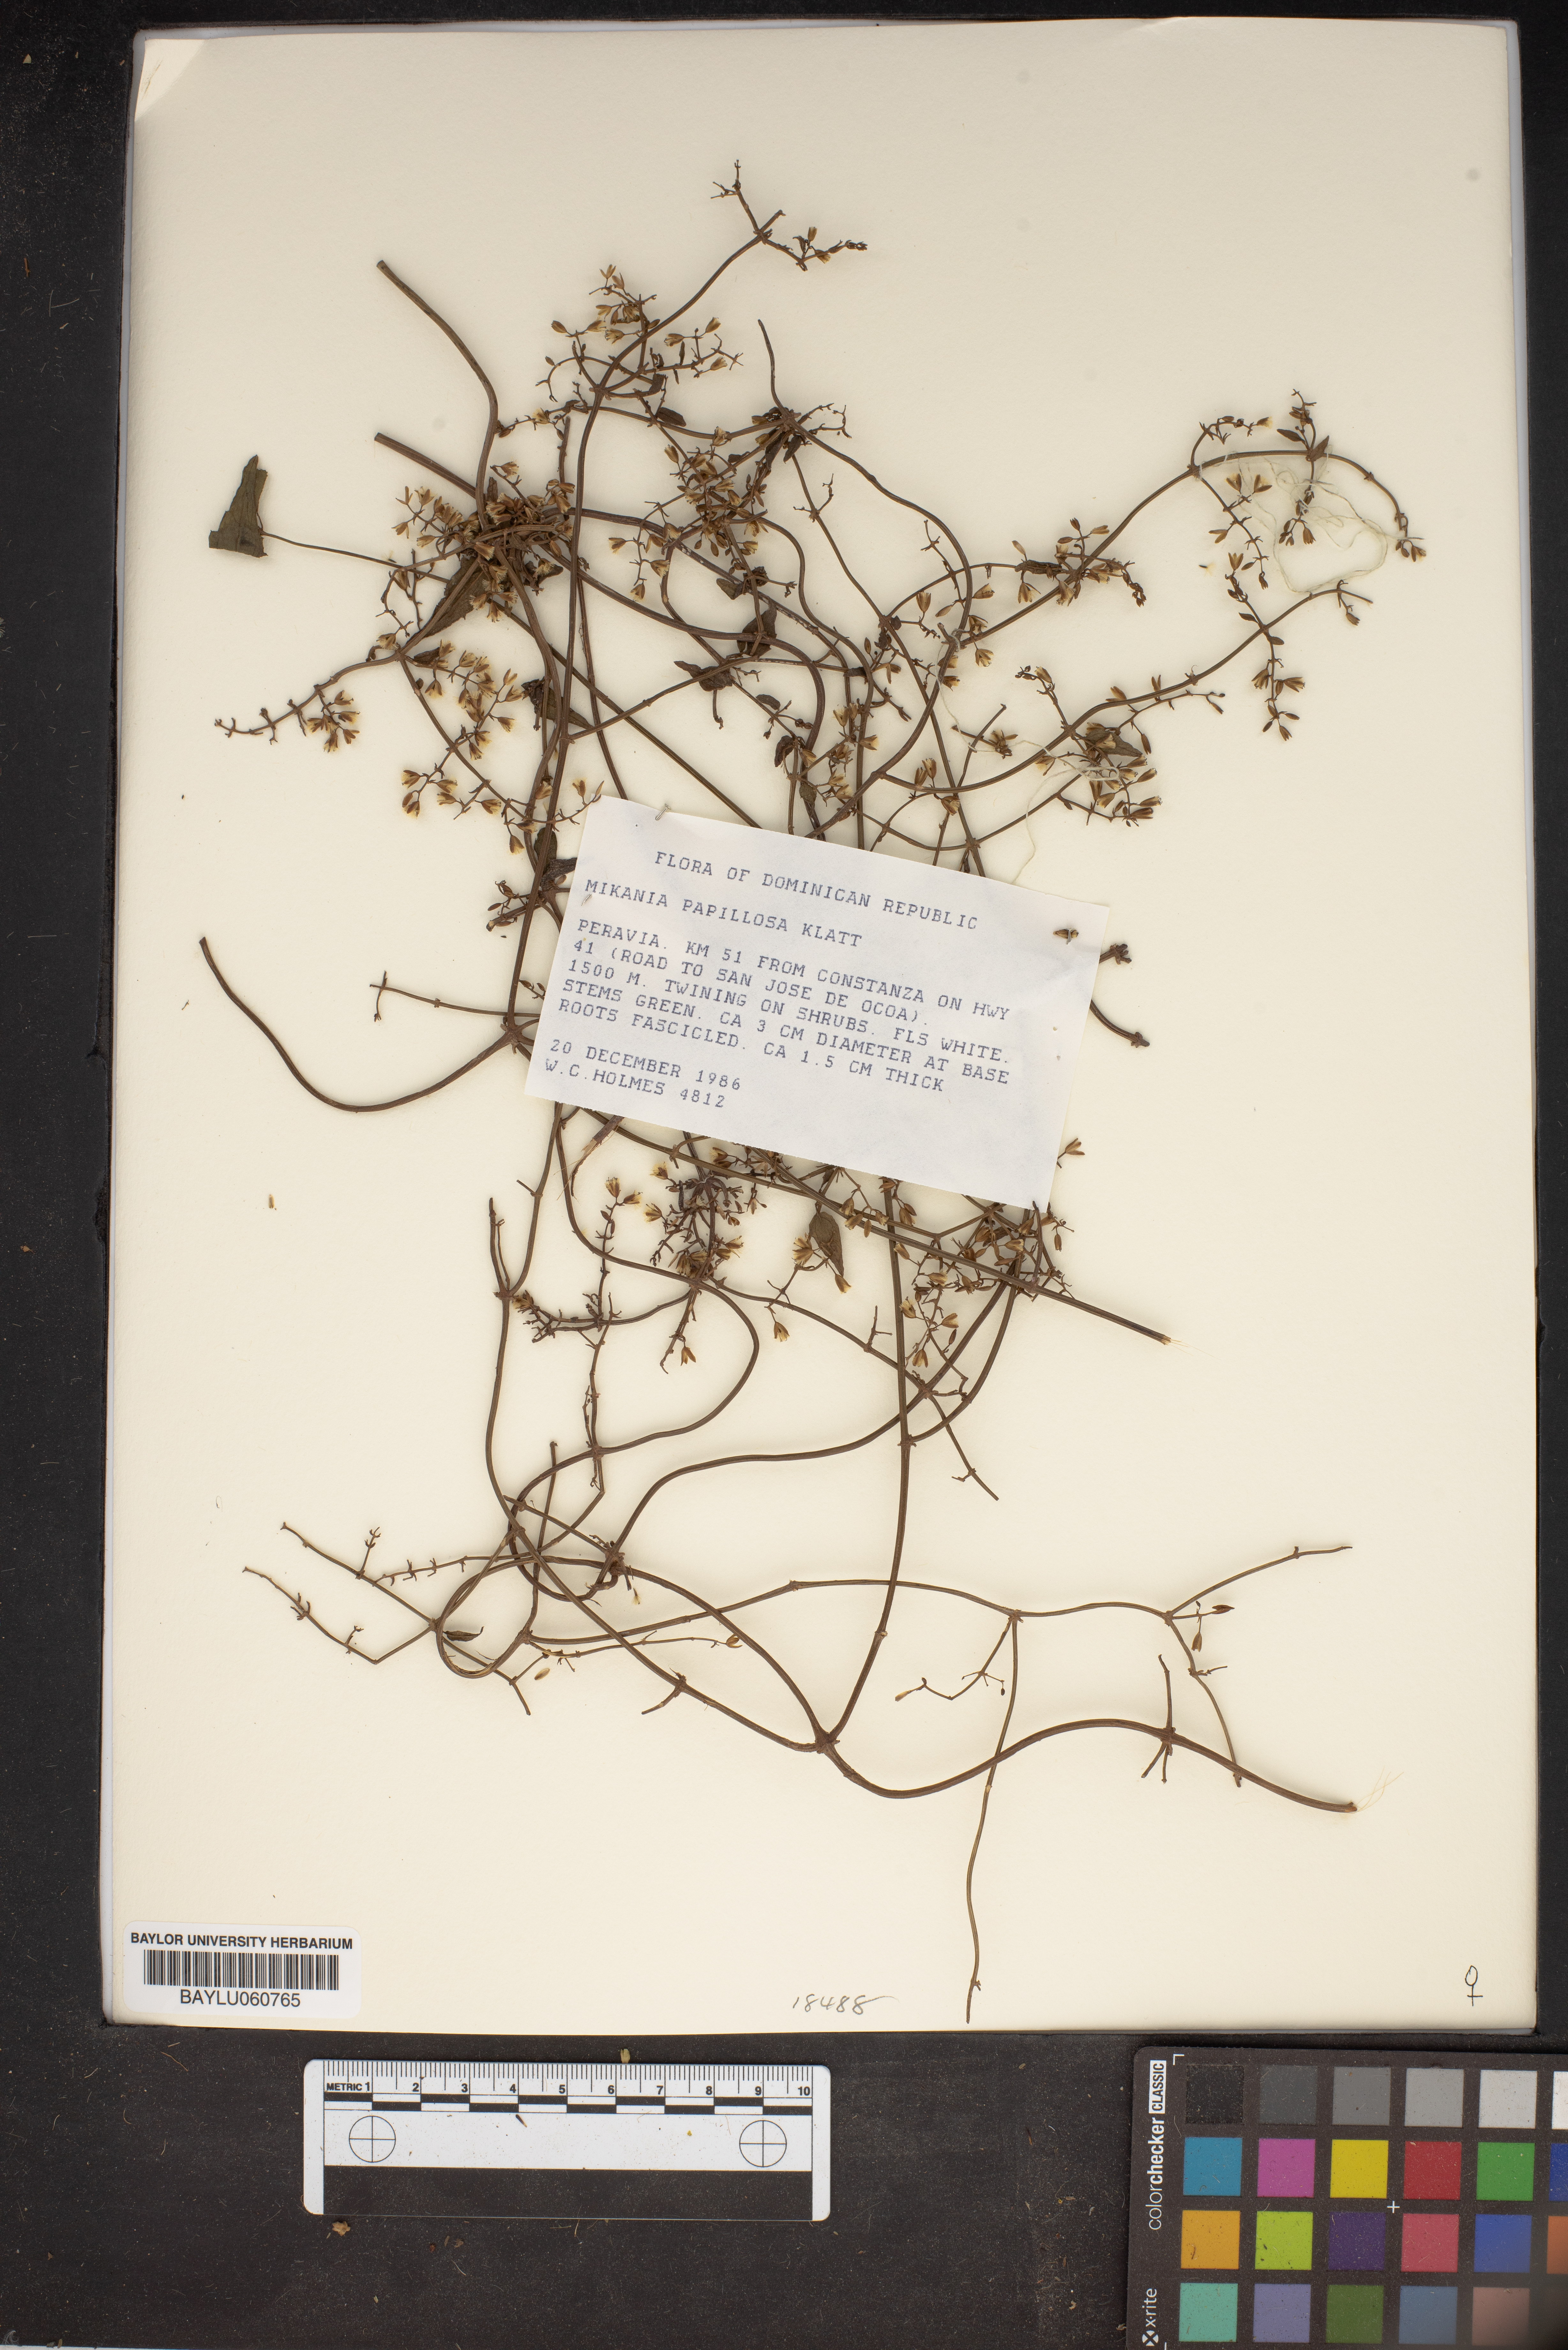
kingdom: Plantae
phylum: Tracheophyta
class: Magnoliopsida
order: Asterales
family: Asteraceae
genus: Mikania
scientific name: Mikania papillosa
